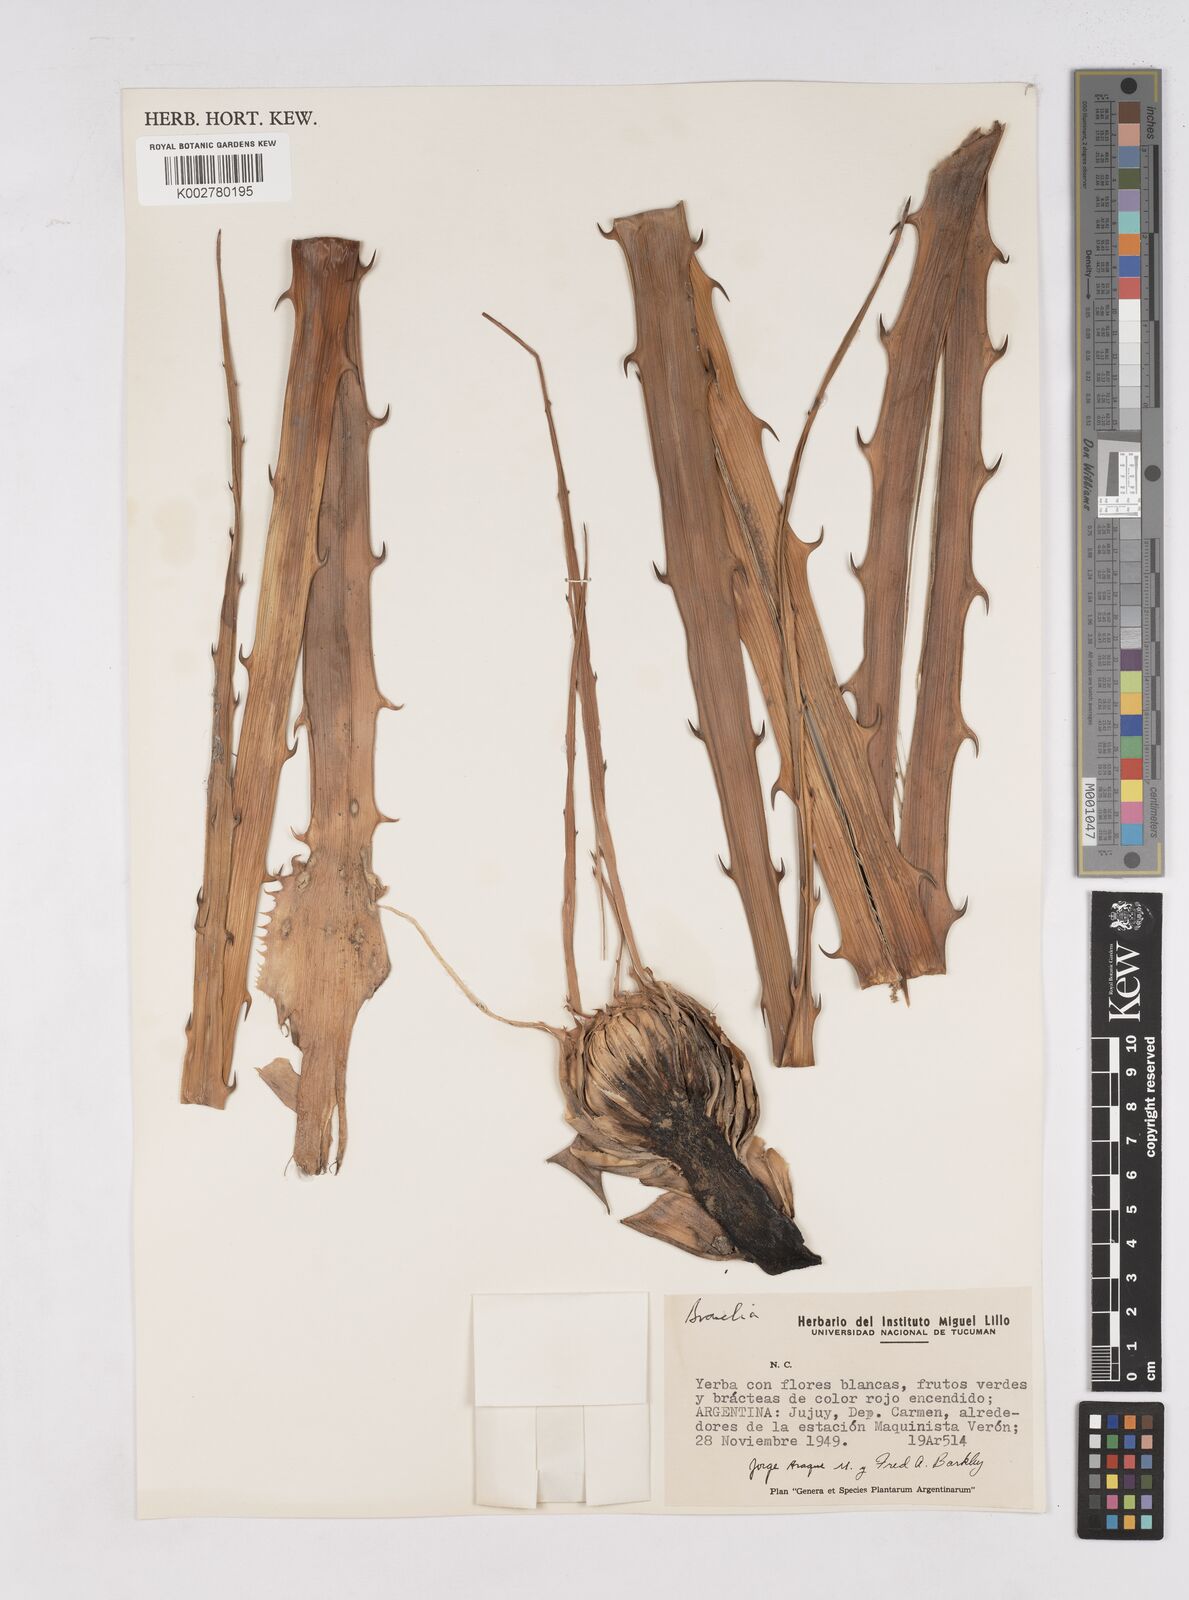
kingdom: Plantae
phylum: Tracheophyta
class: Liliopsida
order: Poales
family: Bromeliaceae
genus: Bromelia
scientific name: Bromelia
